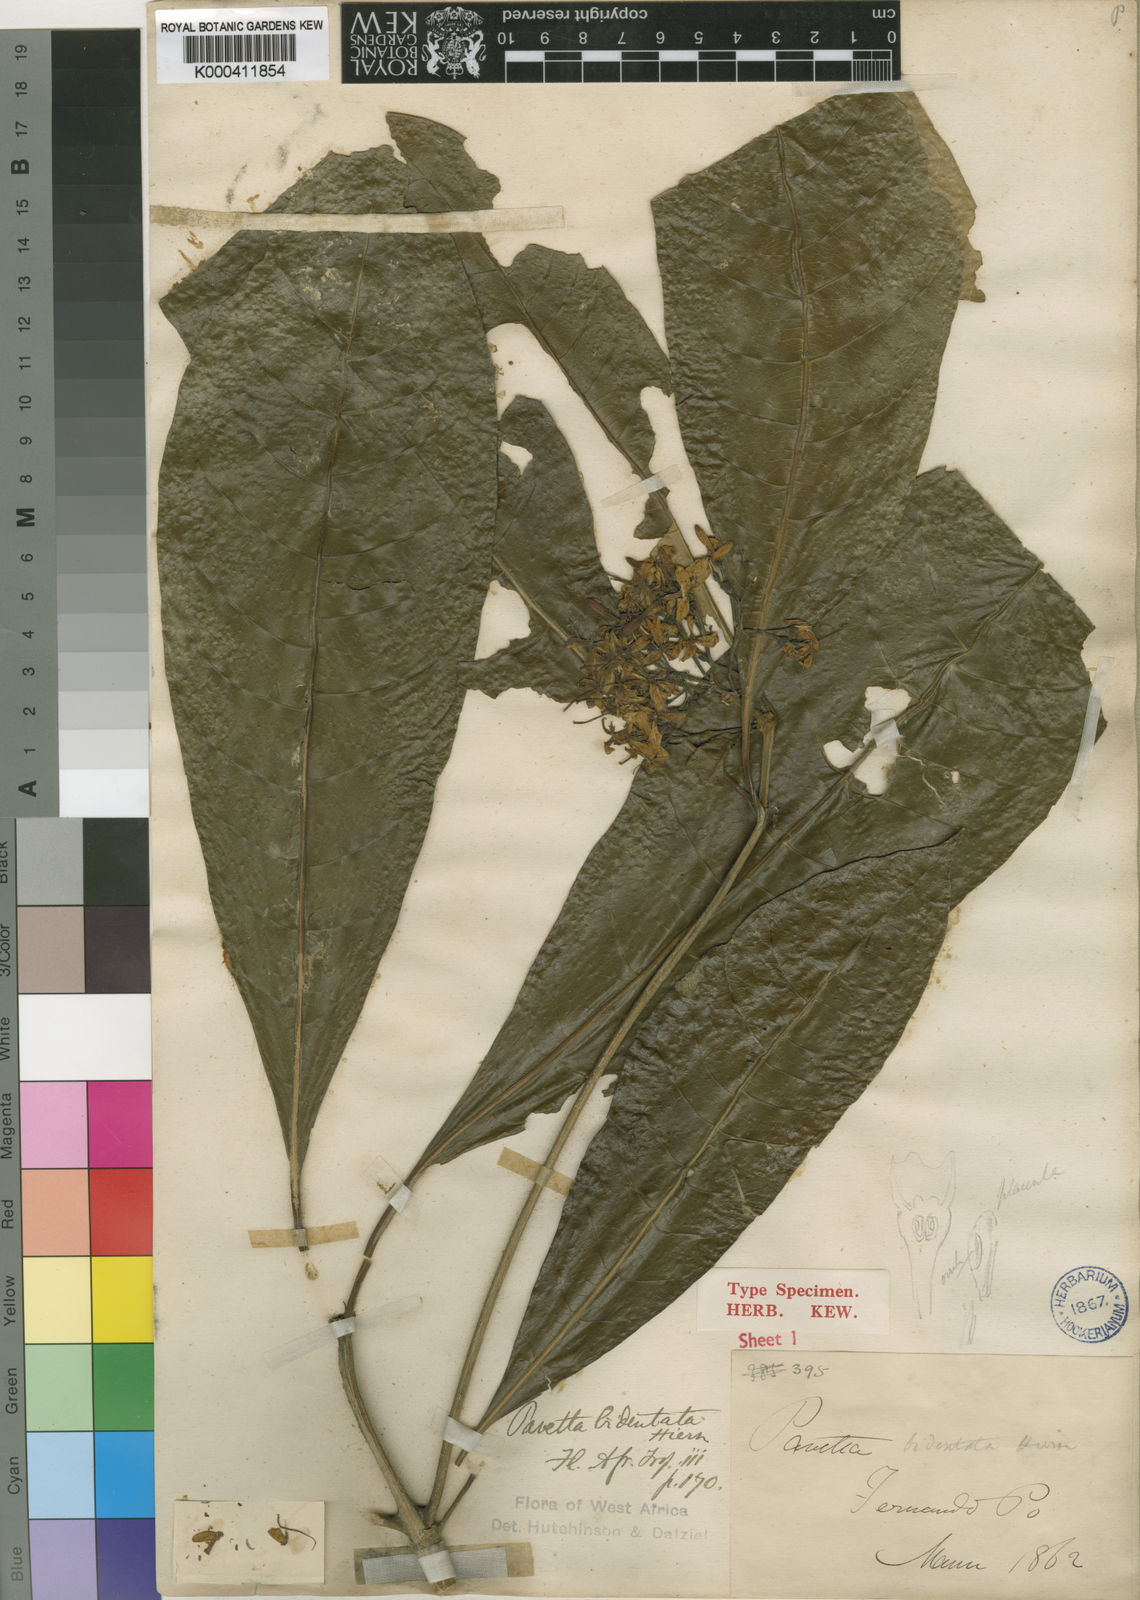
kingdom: Plantae
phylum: Tracheophyta
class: Magnoliopsida
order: Gentianales
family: Rubiaceae
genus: Pavetta
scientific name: Pavetta bidentata
